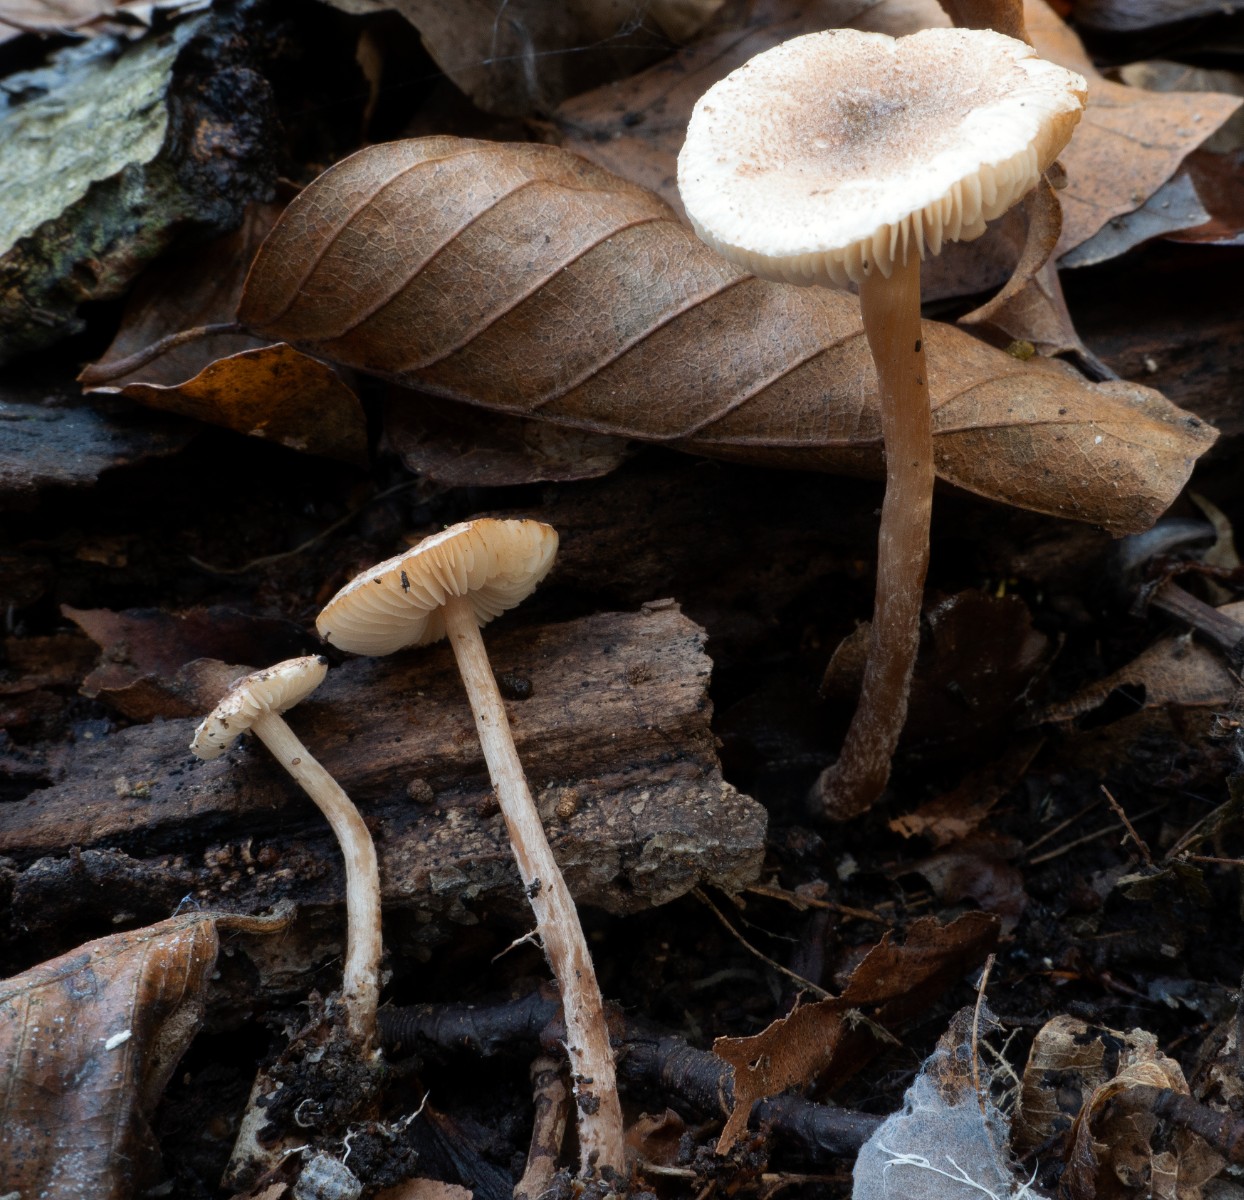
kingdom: Fungi
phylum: Basidiomycota
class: Agaricomycetes
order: Agaricales
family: Agaricaceae
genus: Lepiota
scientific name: Lepiota echinella
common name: finskællet parasolhat
